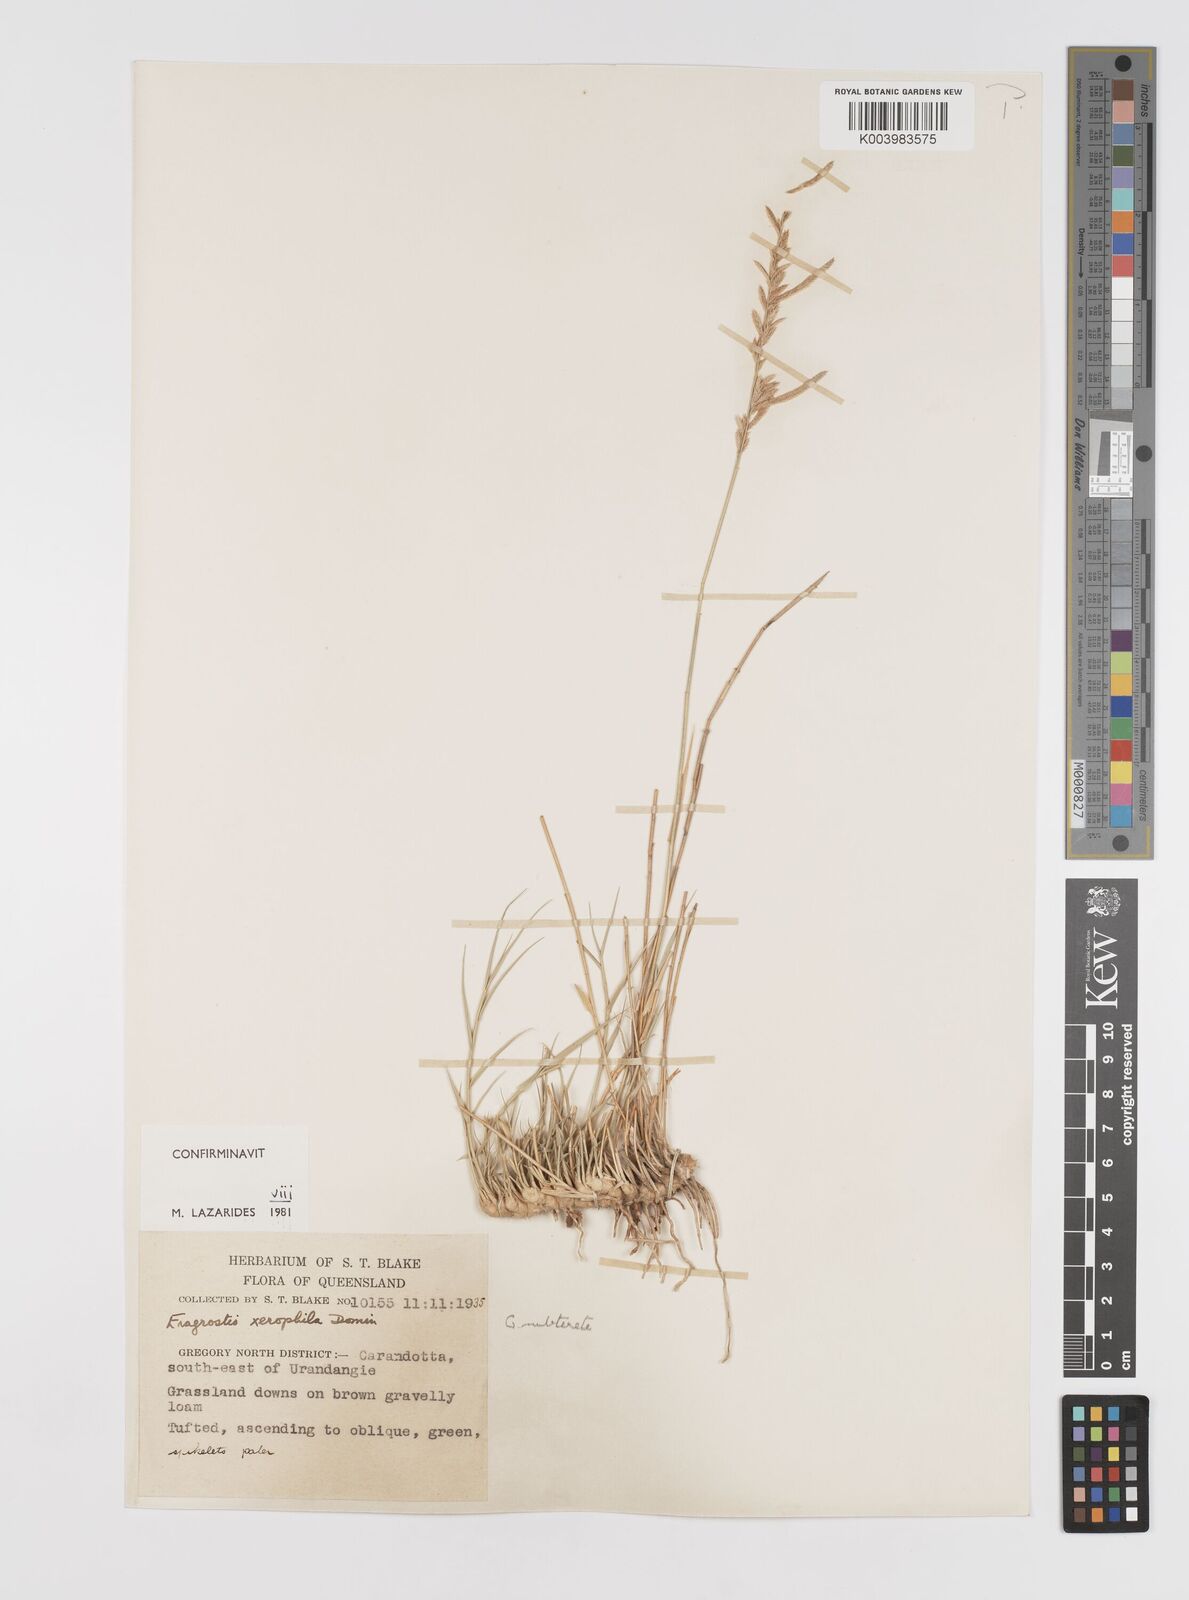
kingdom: Plantae
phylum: Tracheophyta
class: Liliopsida
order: Poales
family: Poaceae
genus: Eragrostis
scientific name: Eragrostis xerophila
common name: Wire wandarrie grass
